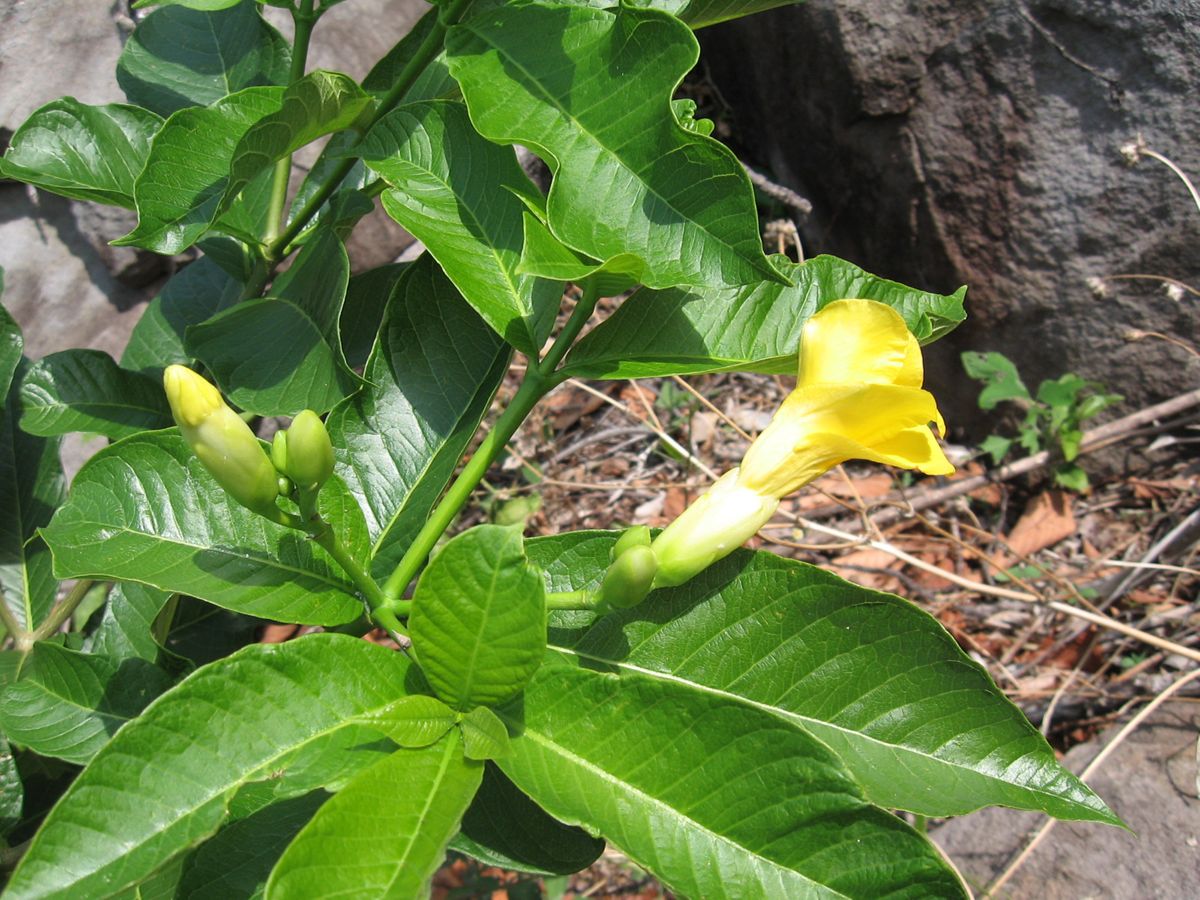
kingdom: Plantae
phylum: Tracheophyta
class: Magnoliopsida
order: Gentianales
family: Apocynaceae
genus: Tabernaemontana
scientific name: Tabernaemontana glabra
